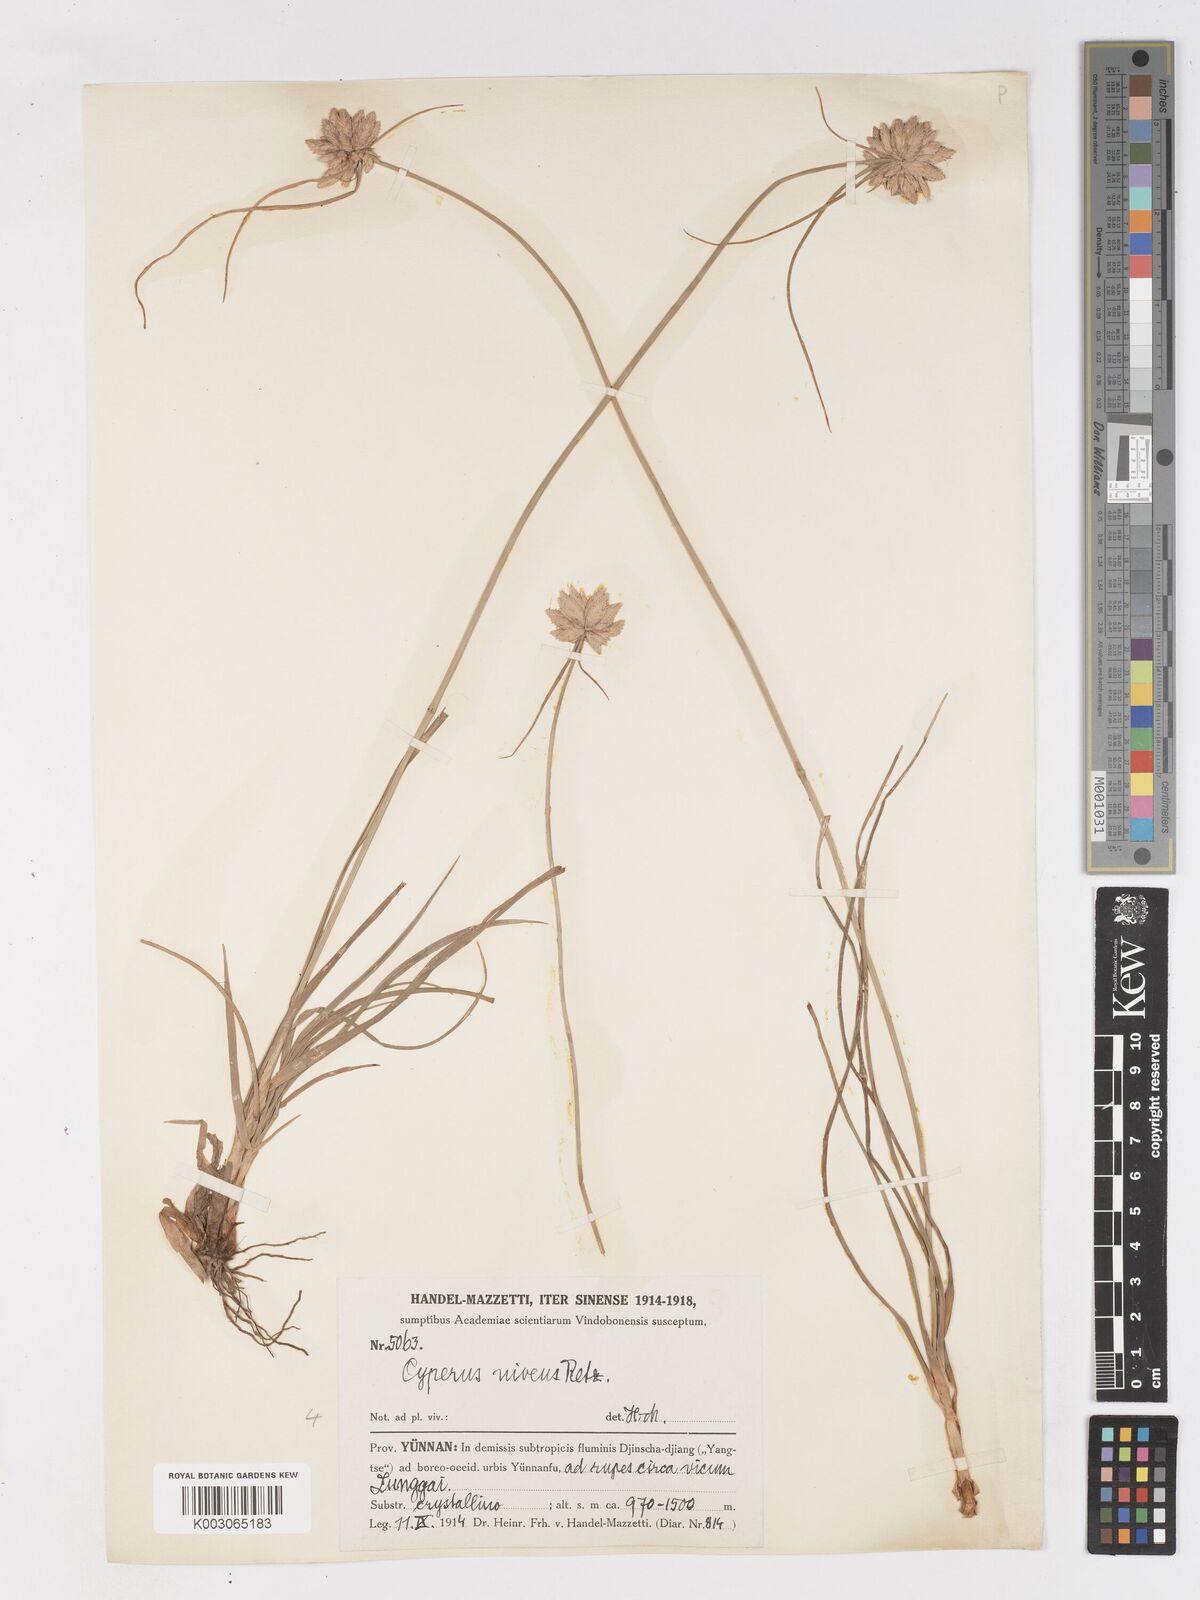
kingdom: Plantae
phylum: Tracheophyta
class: Liliopsida
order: Poales
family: Cyperaceae
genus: Cyperus
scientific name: Cyperus niveus
